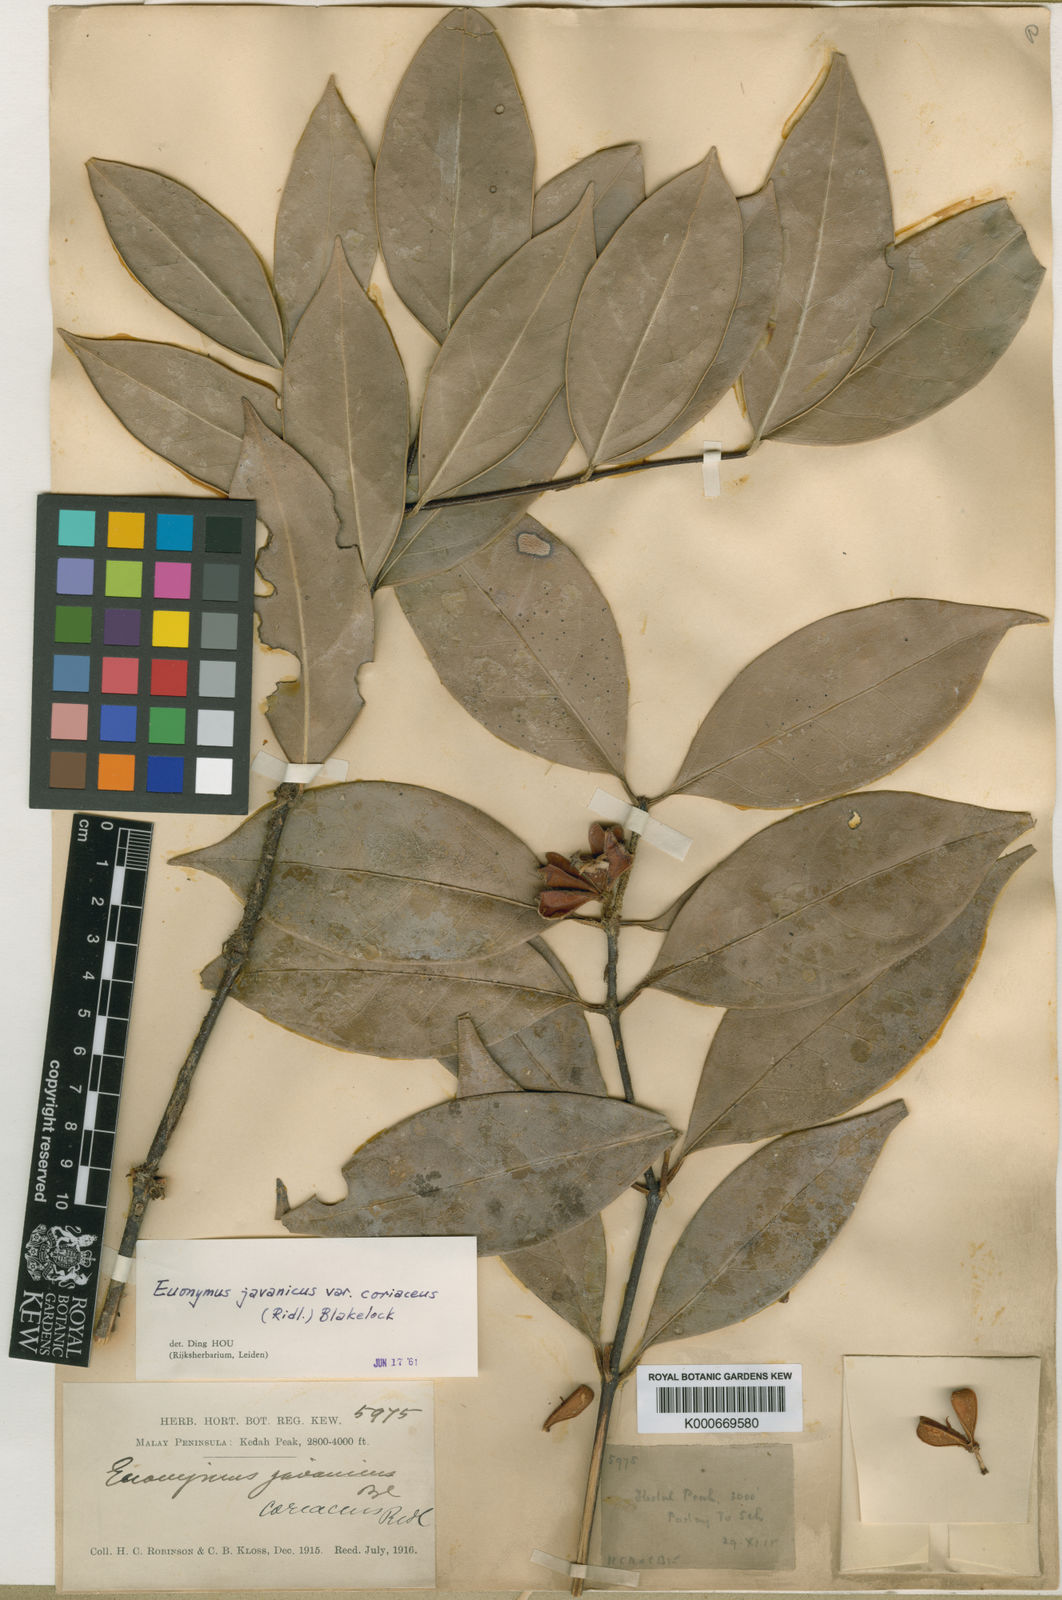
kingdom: Plantae
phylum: Tracheophyta
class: Magnoliopsida
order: Celastrales
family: Celastraceae
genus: Euonymus
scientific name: Euonymus indicus
